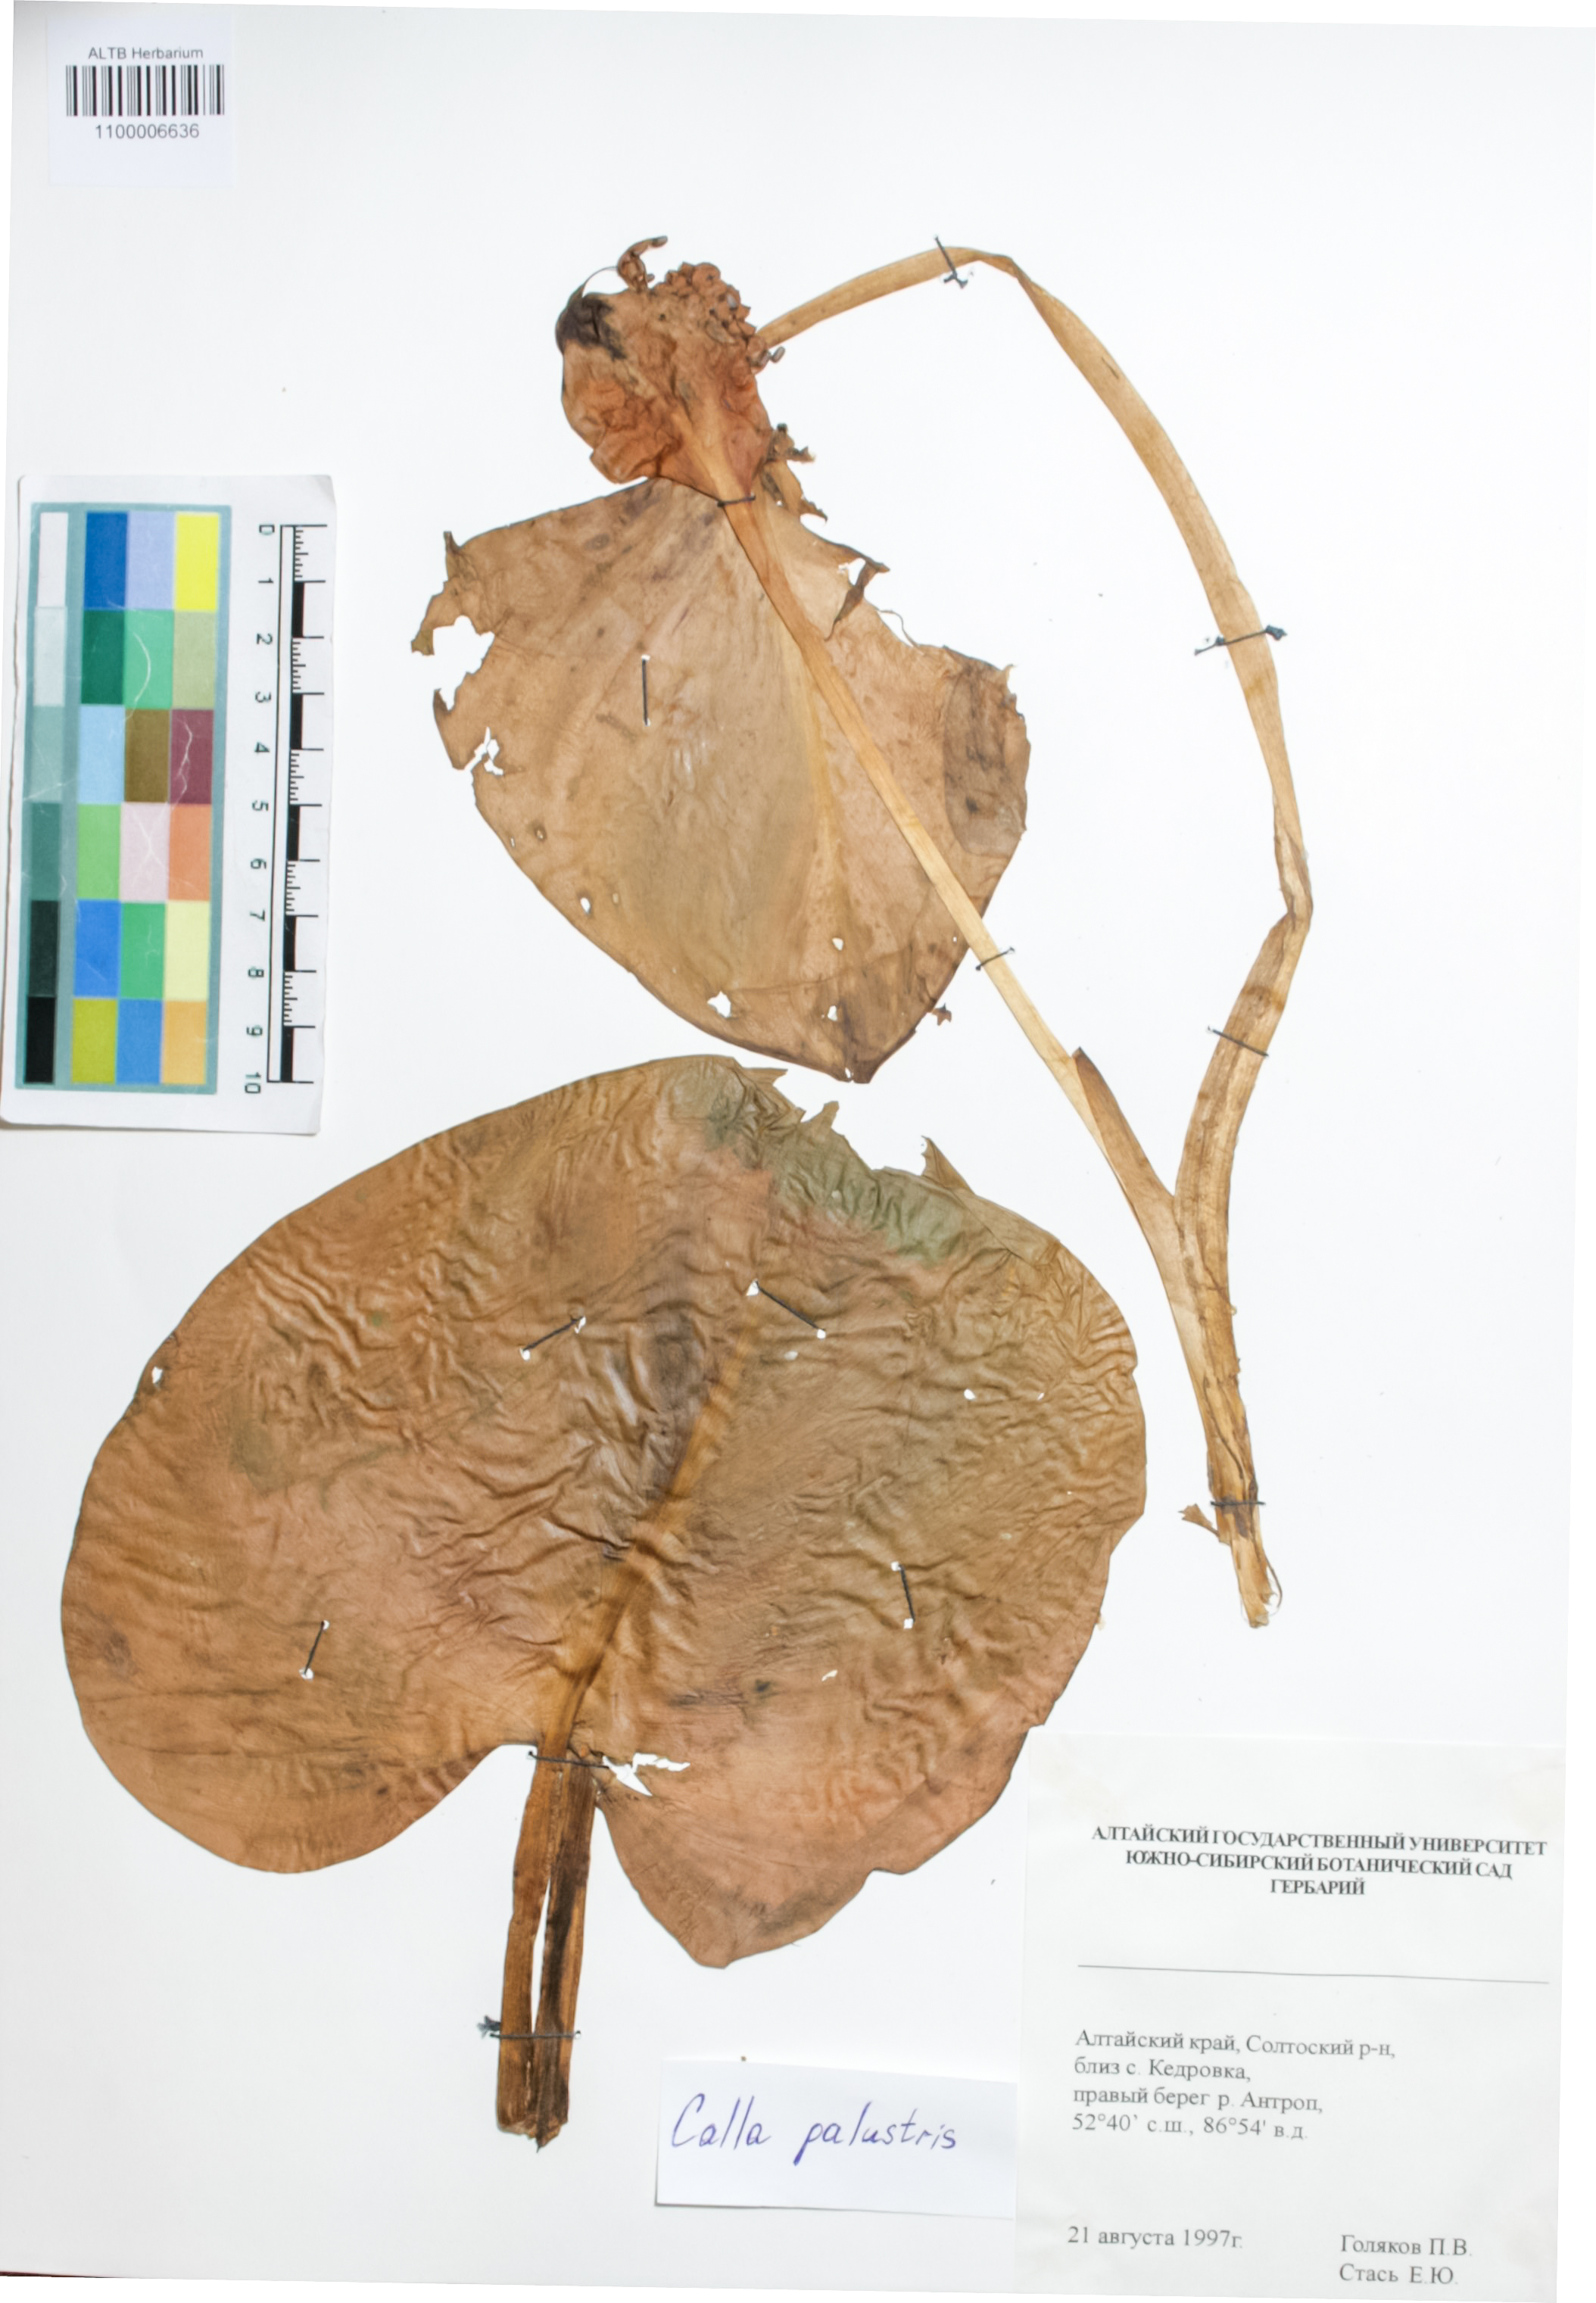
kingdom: Plantae
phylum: Tracheophyta
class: Liliopsida
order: Alismatales
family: Araceae
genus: Calla
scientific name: Calla palustris
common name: Bog arum
